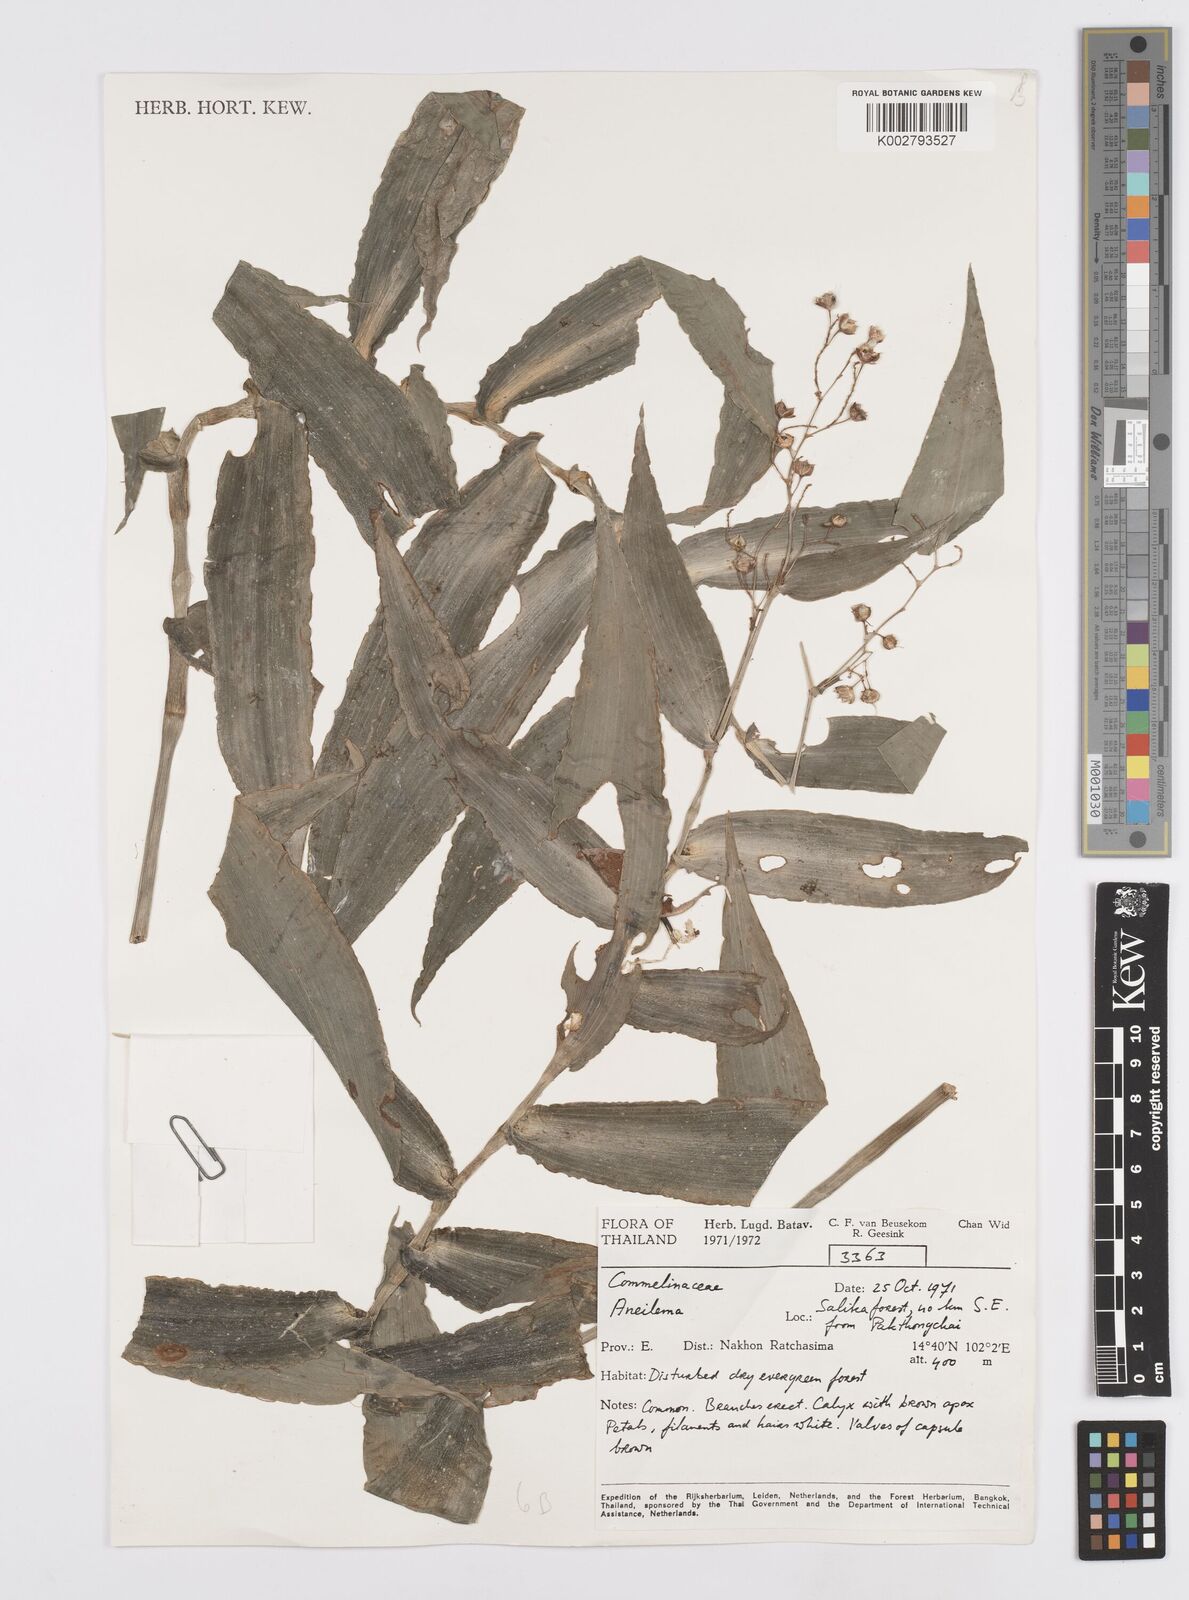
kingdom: Plantae
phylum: Tracheophyta
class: Liliopsida
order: Commelinales
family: Commelinaceae
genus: Murdannia
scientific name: Murdannia
